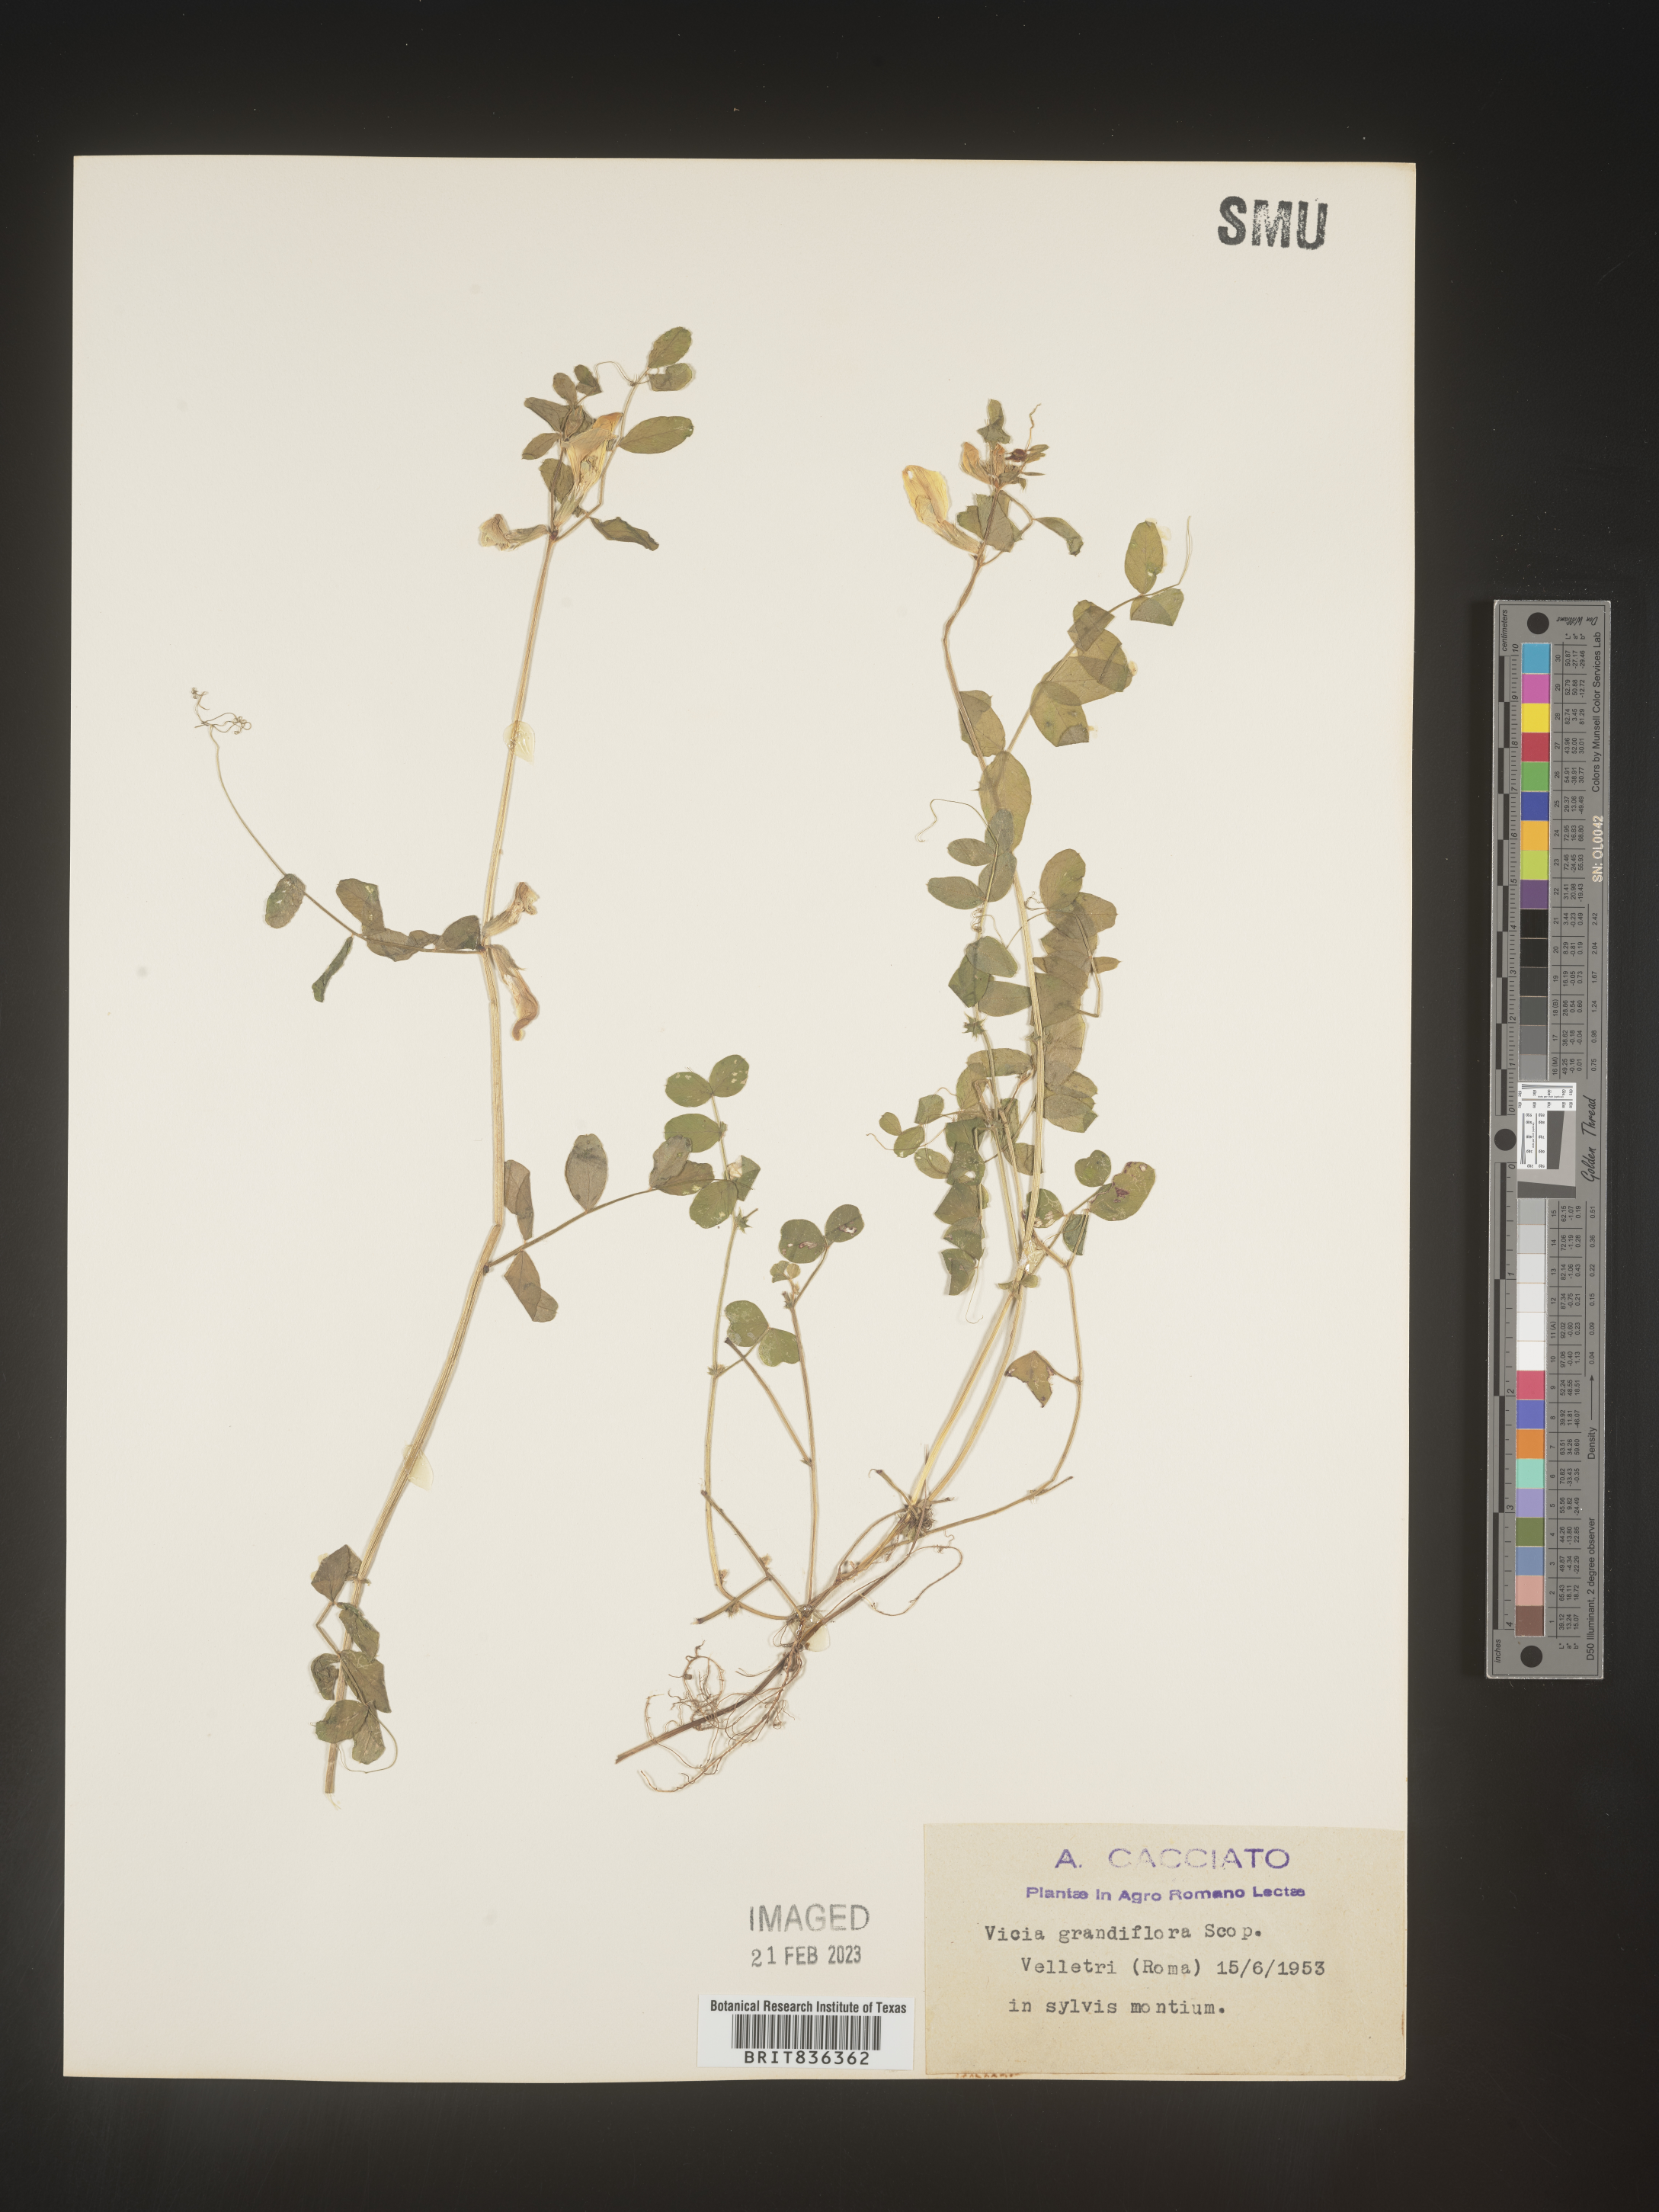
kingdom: Plantae
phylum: Tracheophyta
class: Magnoliopsida
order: Fabales
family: Fabaceae
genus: Vicia
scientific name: Vicia
